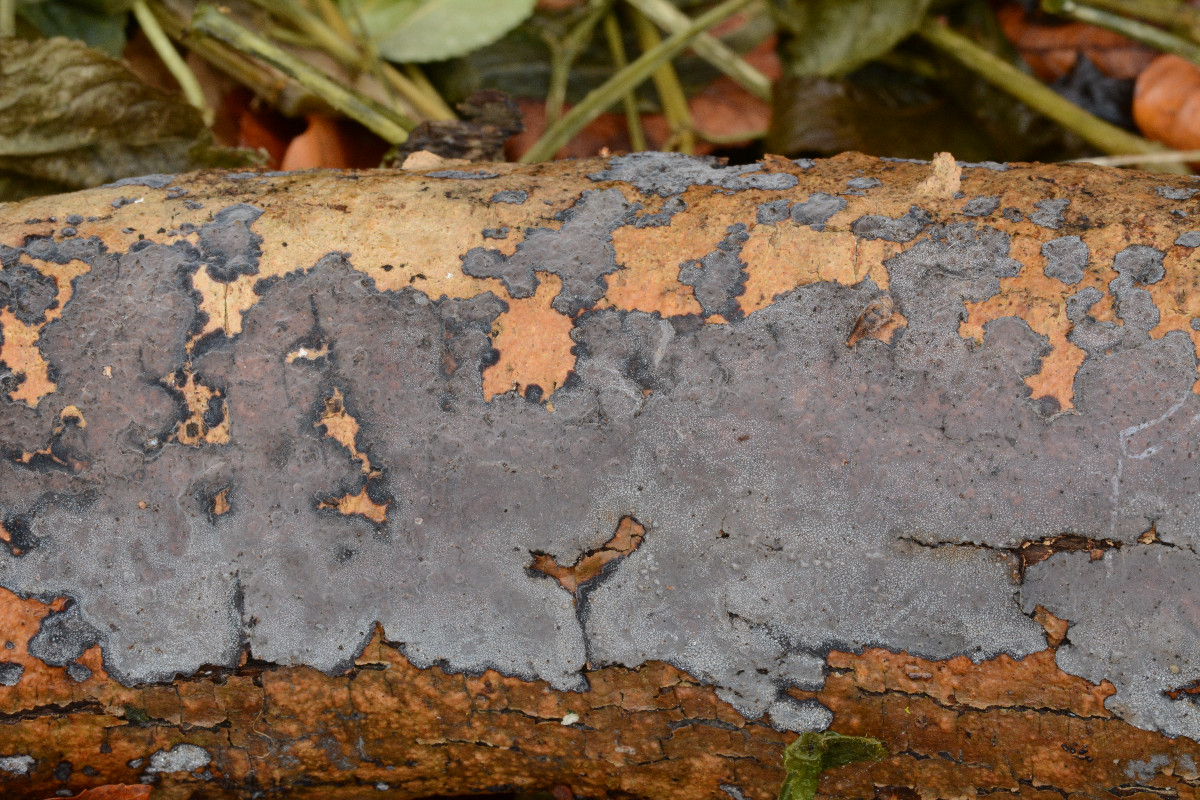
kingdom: Fungi
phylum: Basidiomycota
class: Agaricomycetes
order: Russulales
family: Peniophoraceae
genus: Peniophora
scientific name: Peniophora limitata
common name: mørkrandet voksskind
